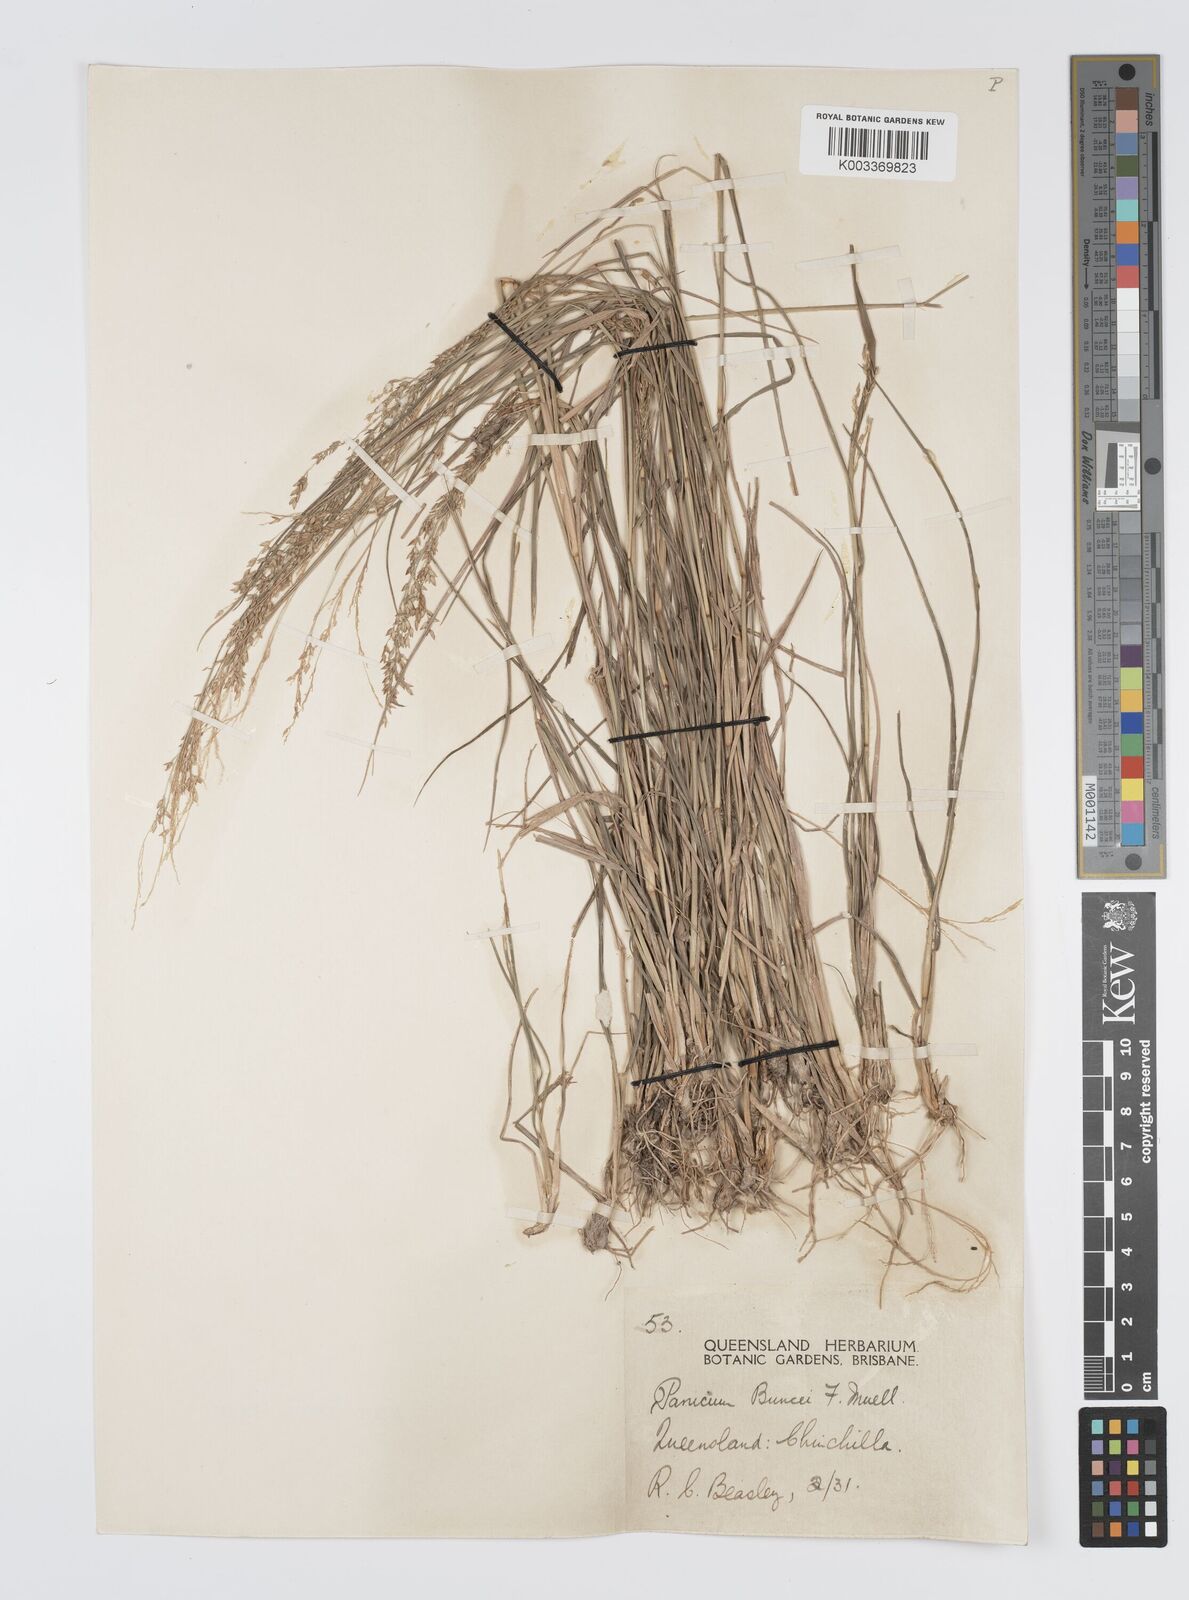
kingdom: Plantae
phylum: Tracheophyta
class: Liliopsida
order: Poales
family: Poaceae
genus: Panicum
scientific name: Panicum buncei
